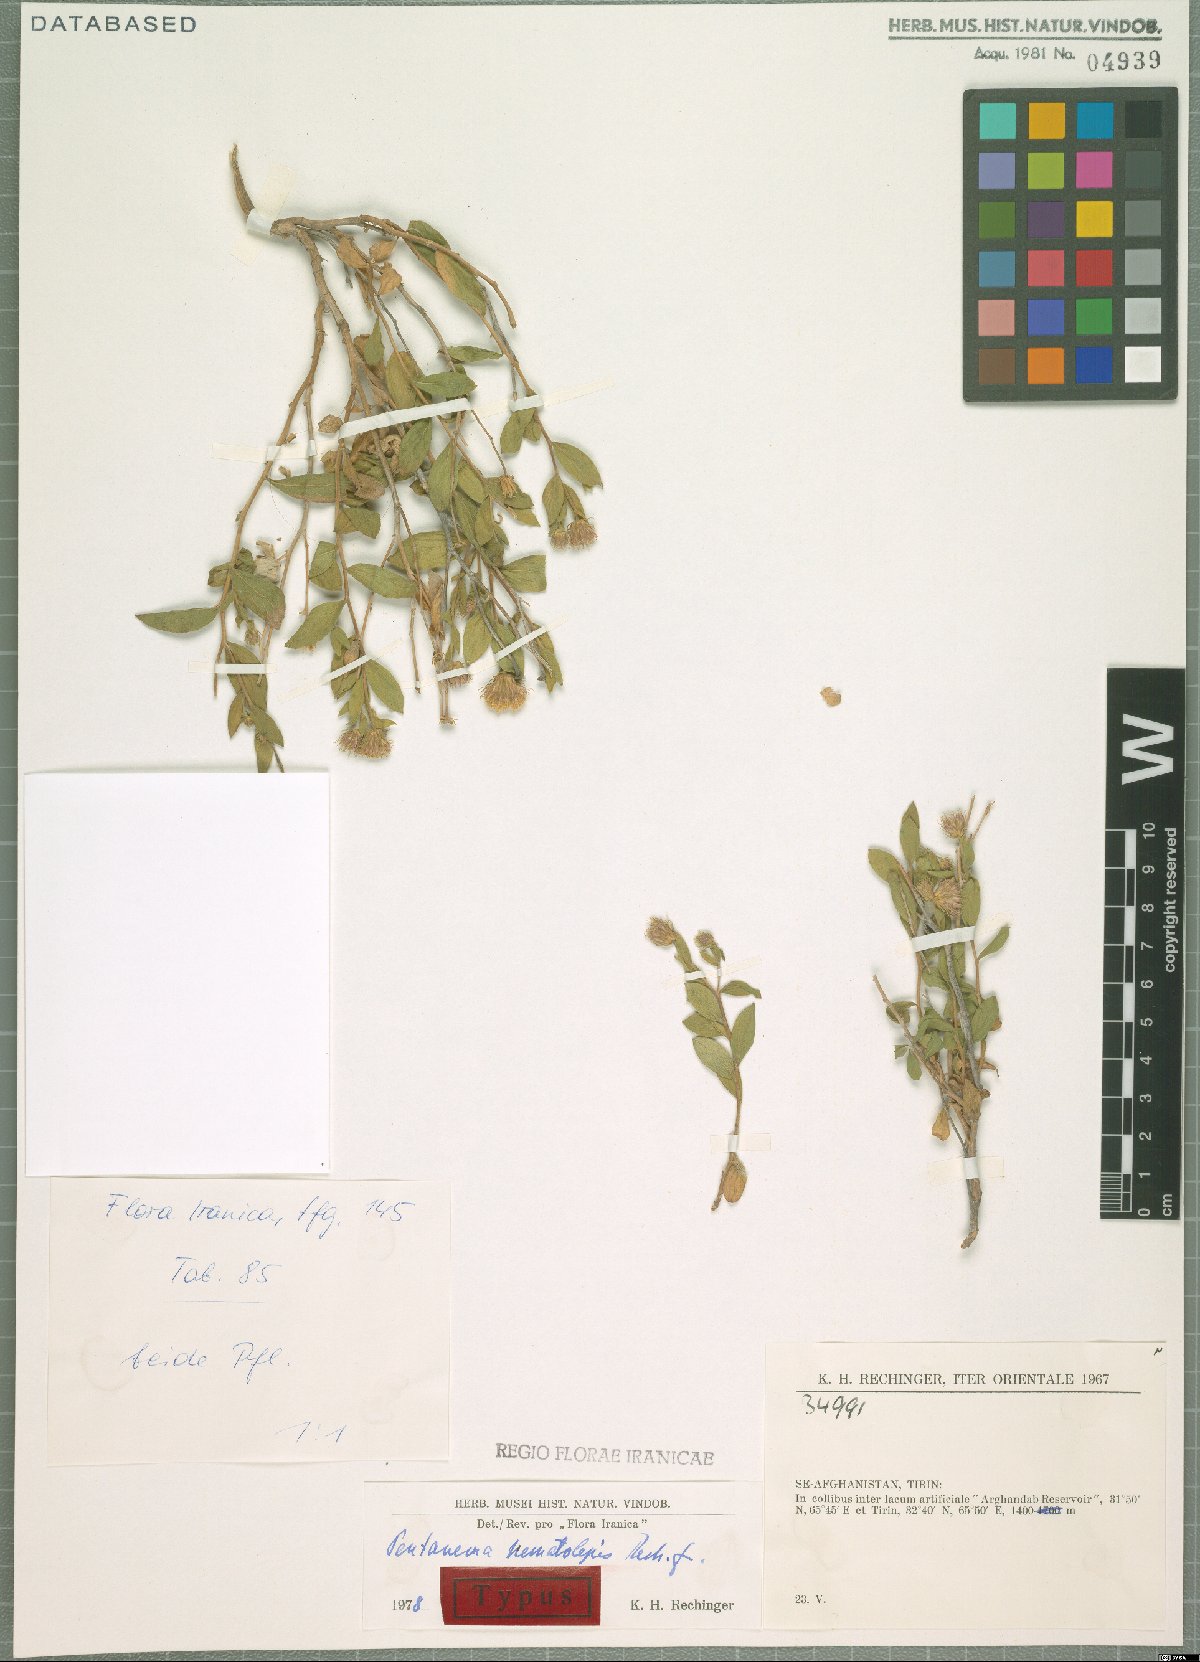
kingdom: Plantae
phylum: Tracheophyta
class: Magnoliopsida
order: Asterales
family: Asteraceae
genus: Pentanema
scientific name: Pentanema nematolepis
